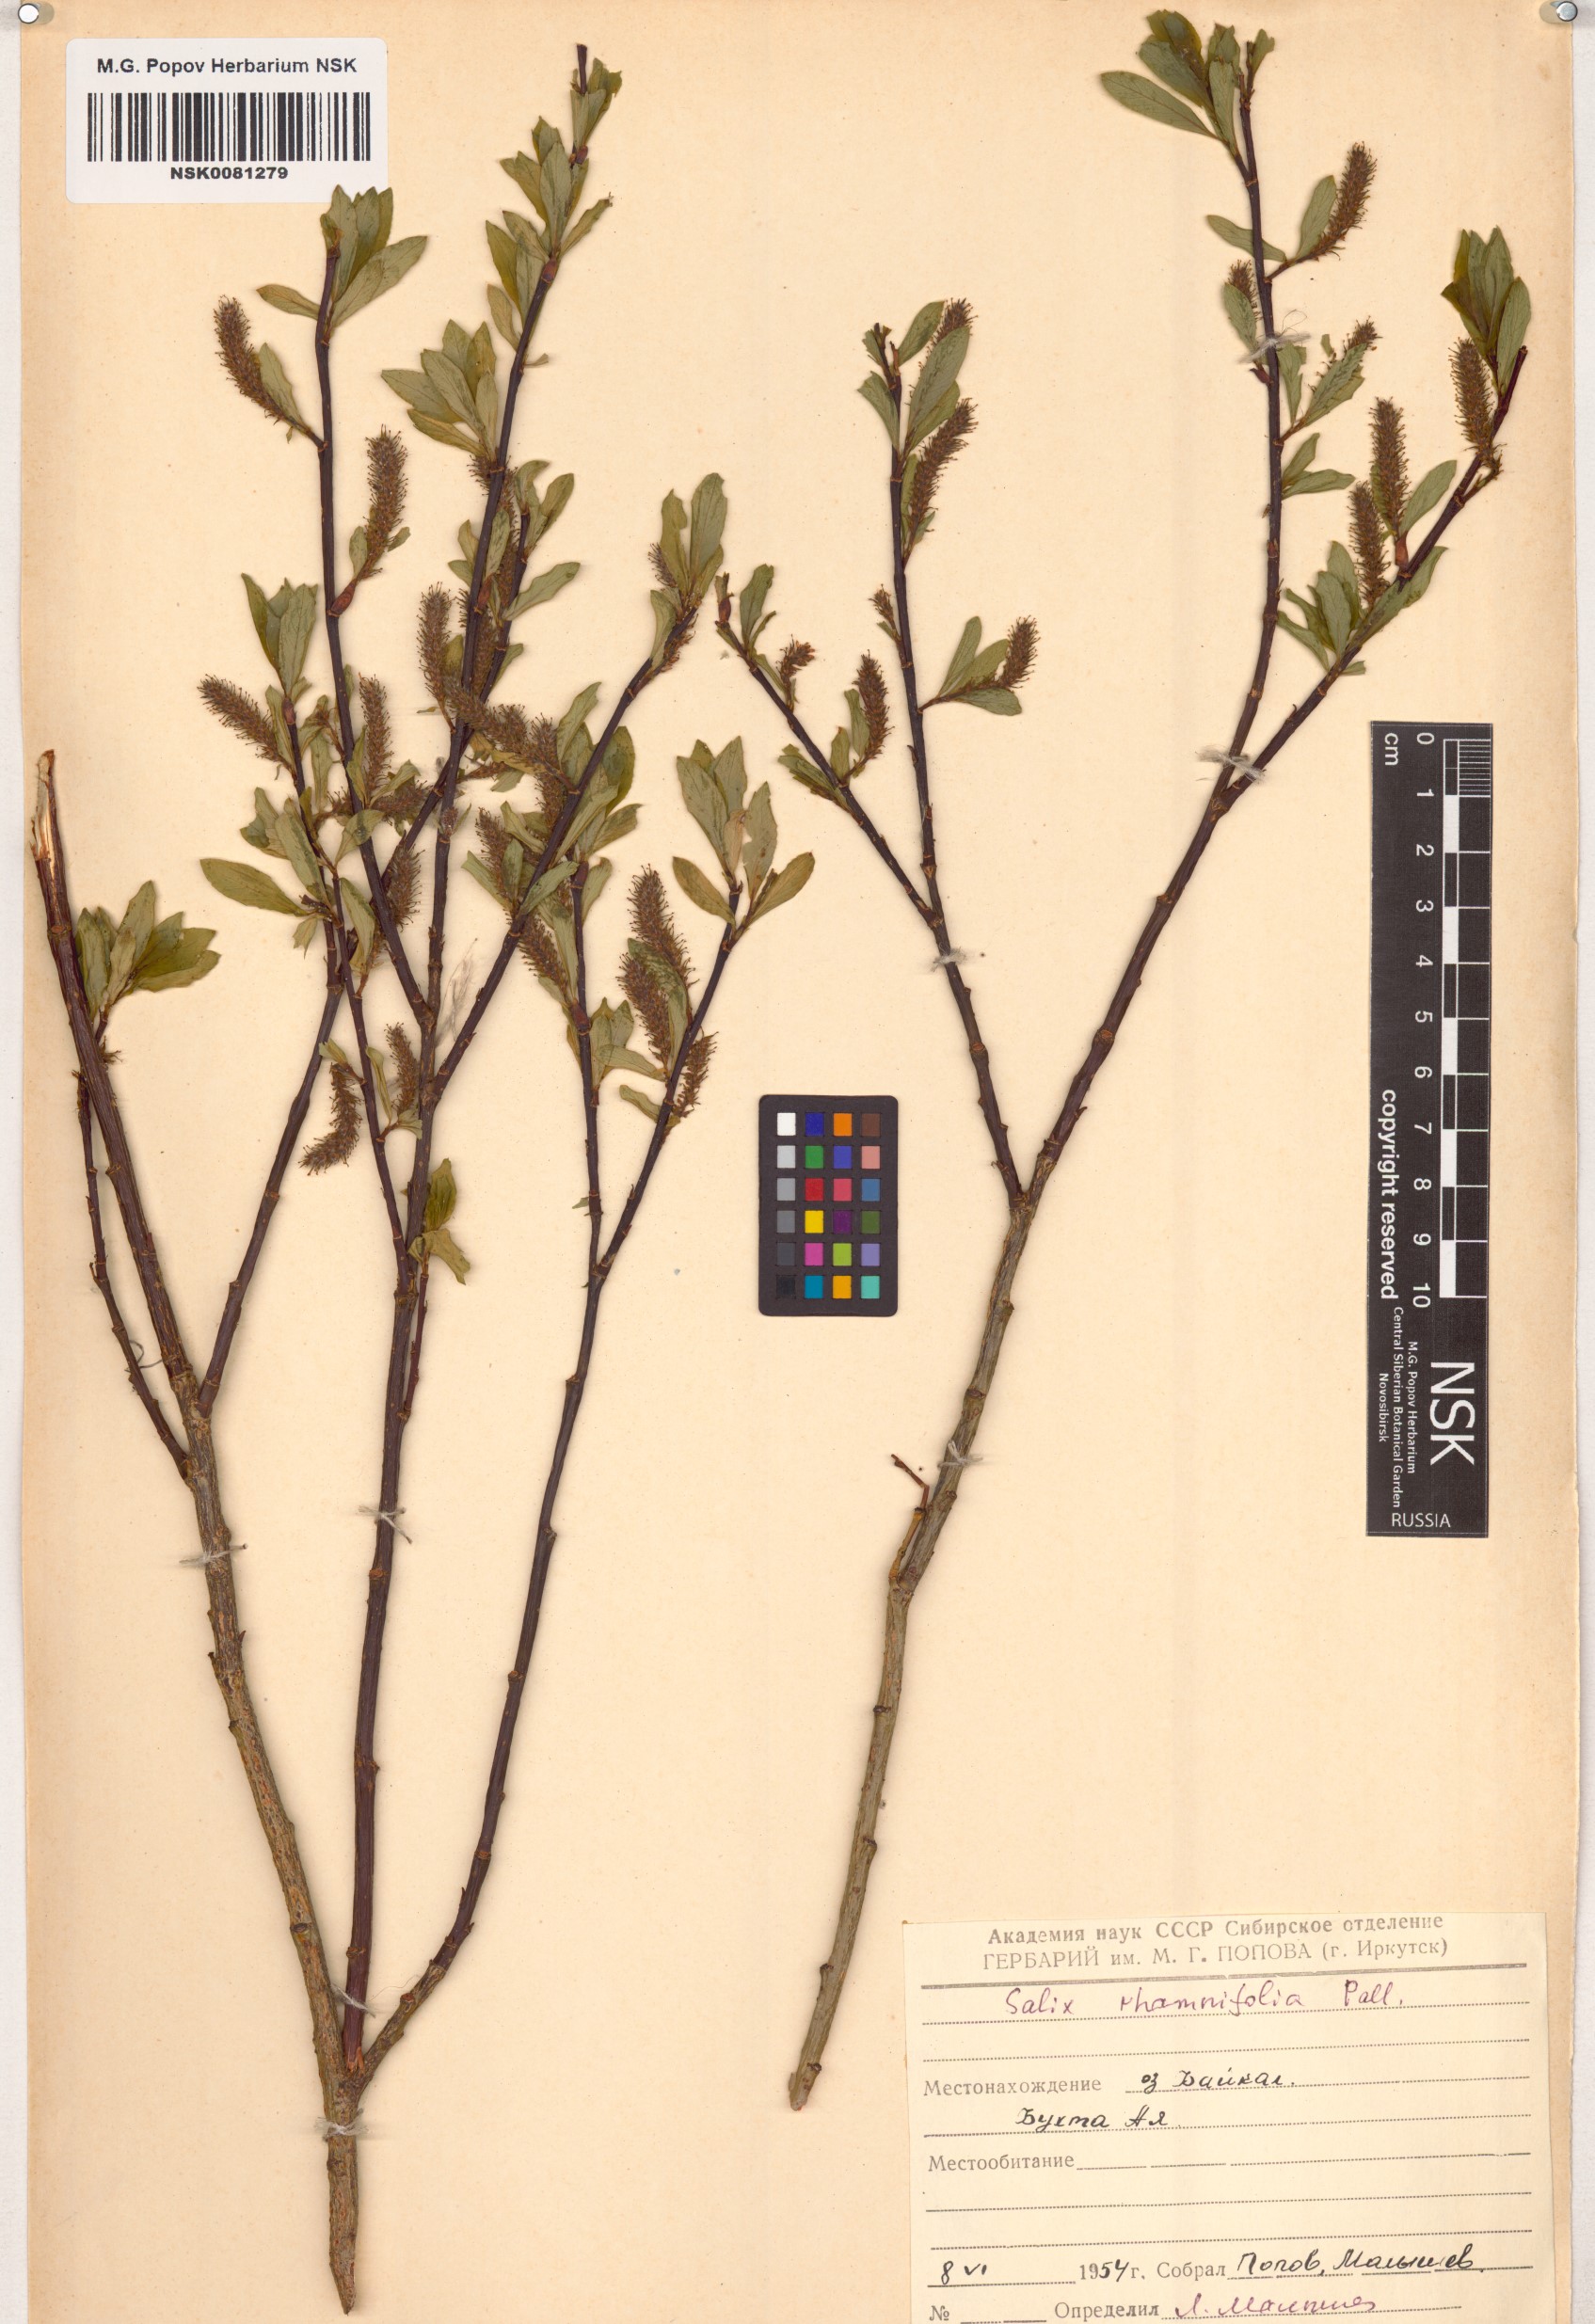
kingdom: Plantae
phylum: Tracheophyta
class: Magnoliopsida
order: Malpighiales
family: Salicaceae
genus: Salix
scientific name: Salix rhamnifolia
